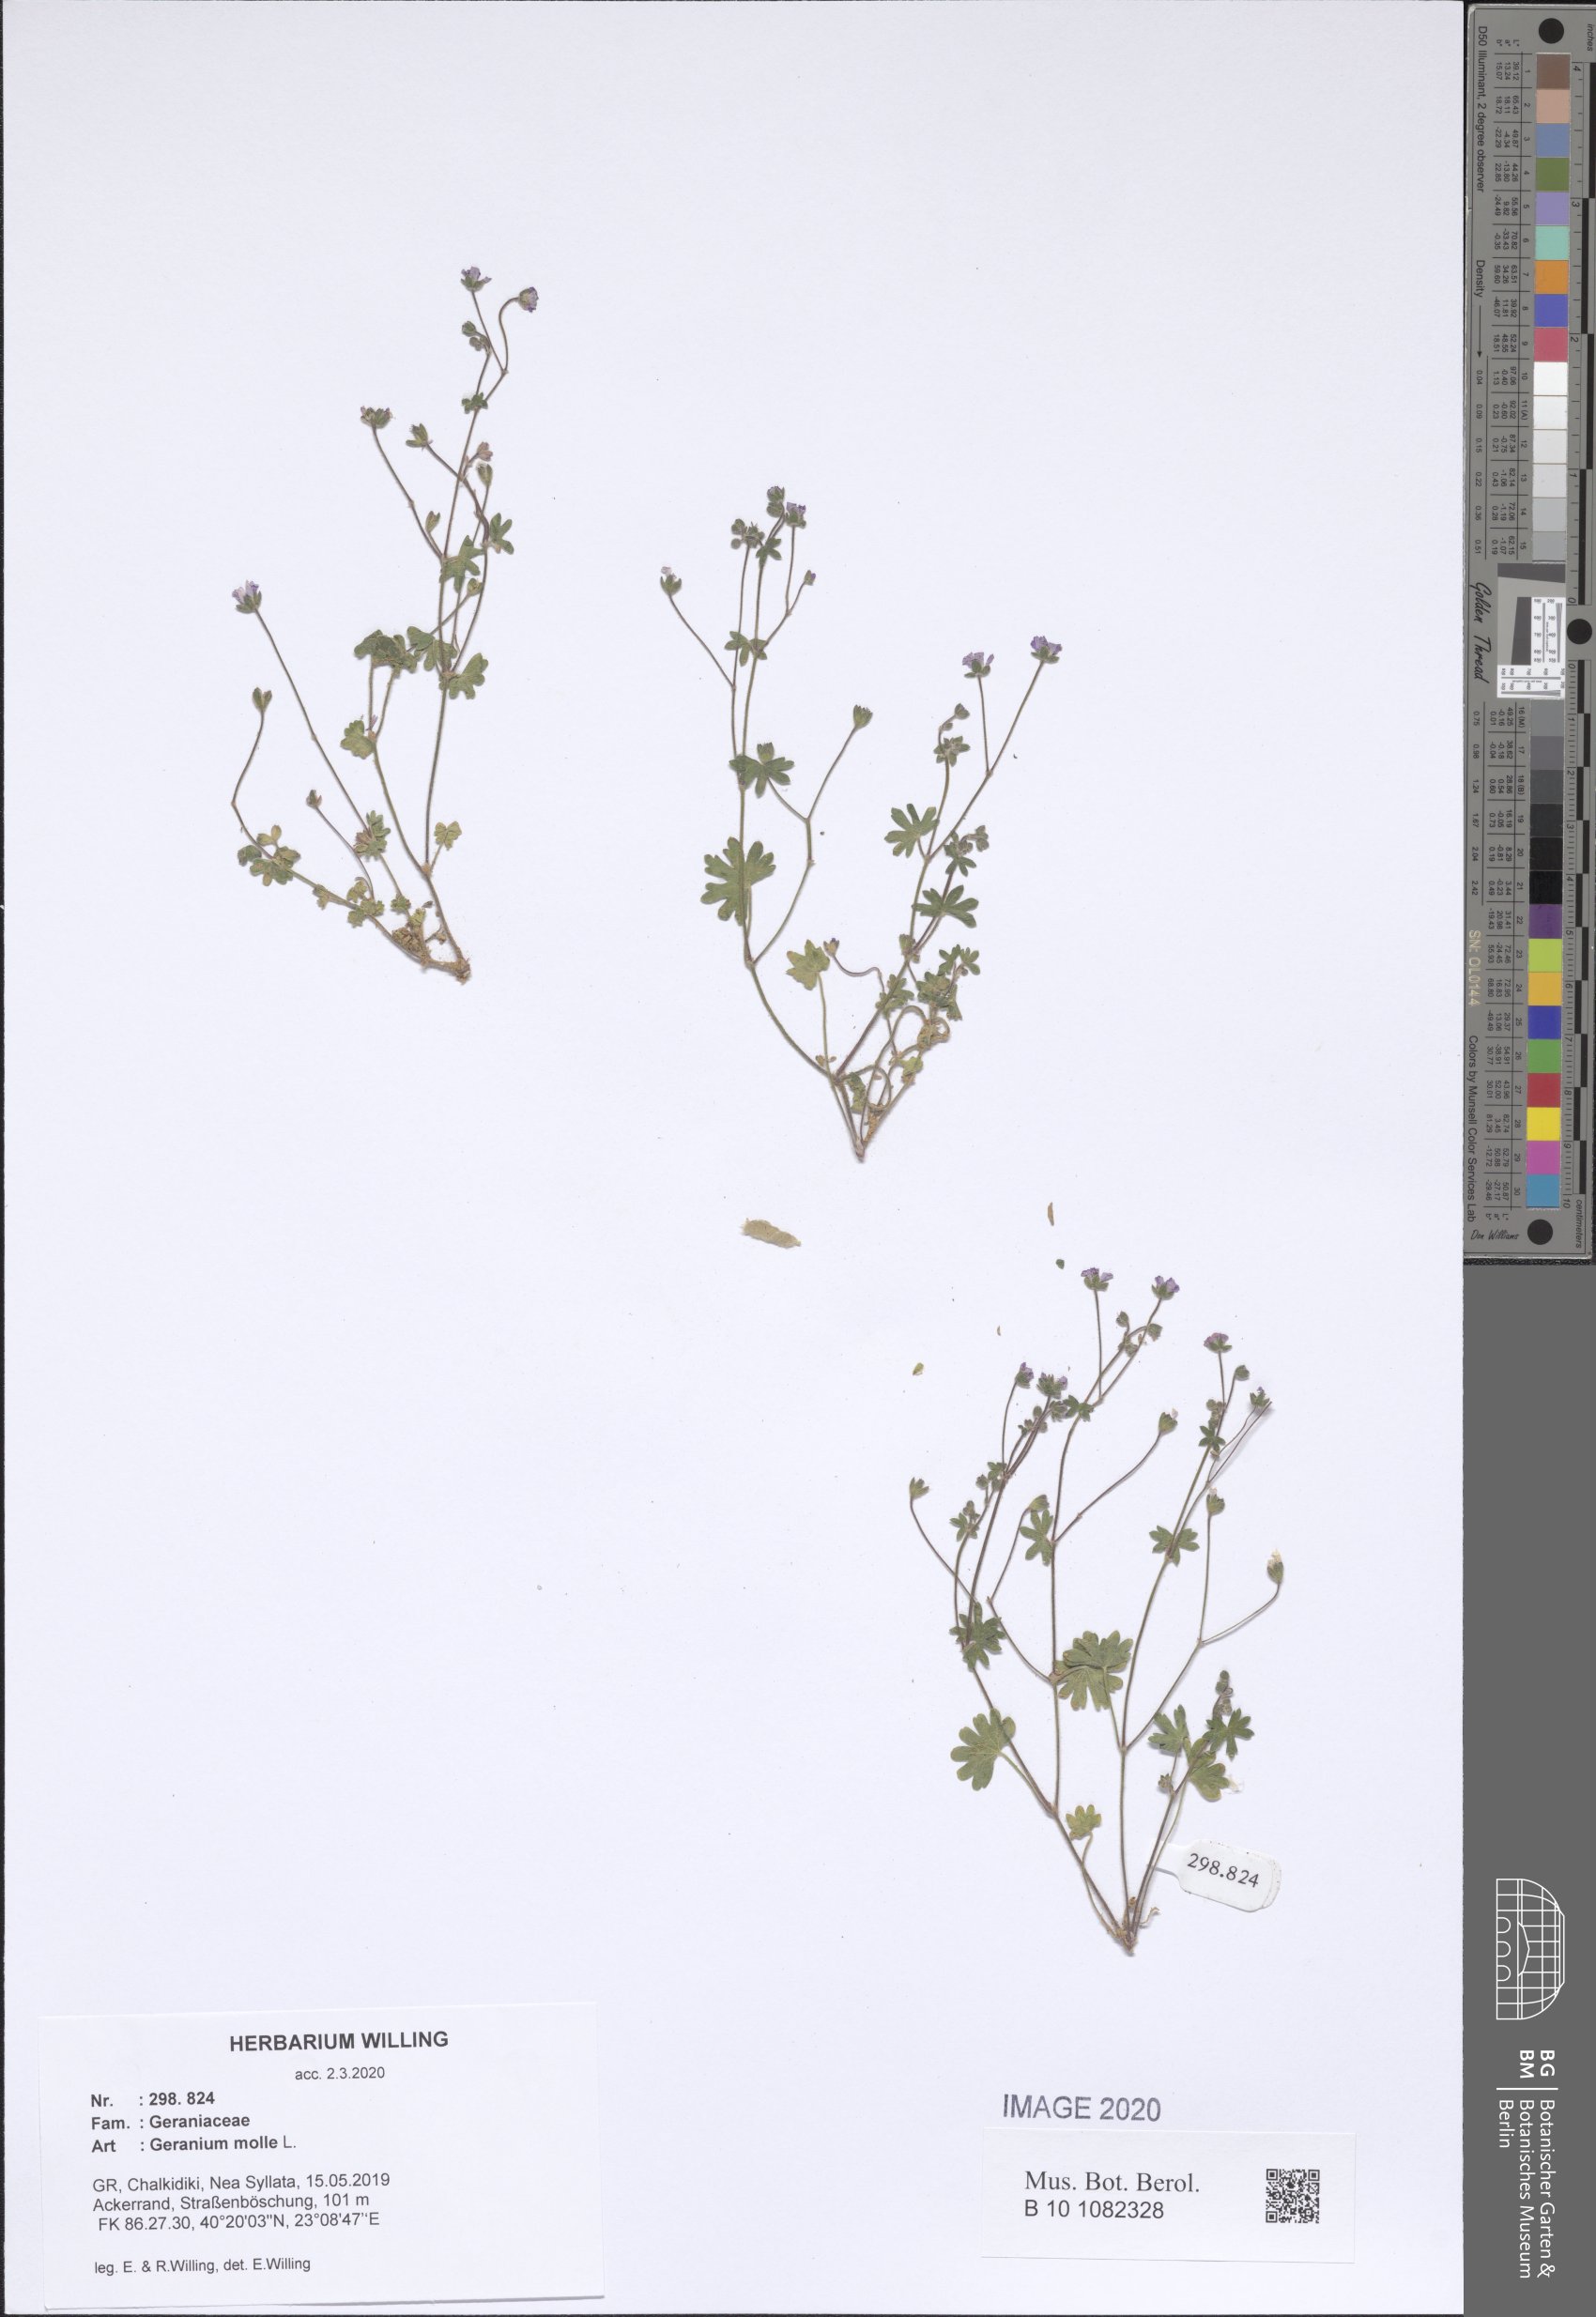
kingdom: Plantae
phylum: Tracheophyta
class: Magnoliopsida
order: Geraniales
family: Geraniaceae
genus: Geranium
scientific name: Geranium molle
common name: Dove's-foot crane's-bill
